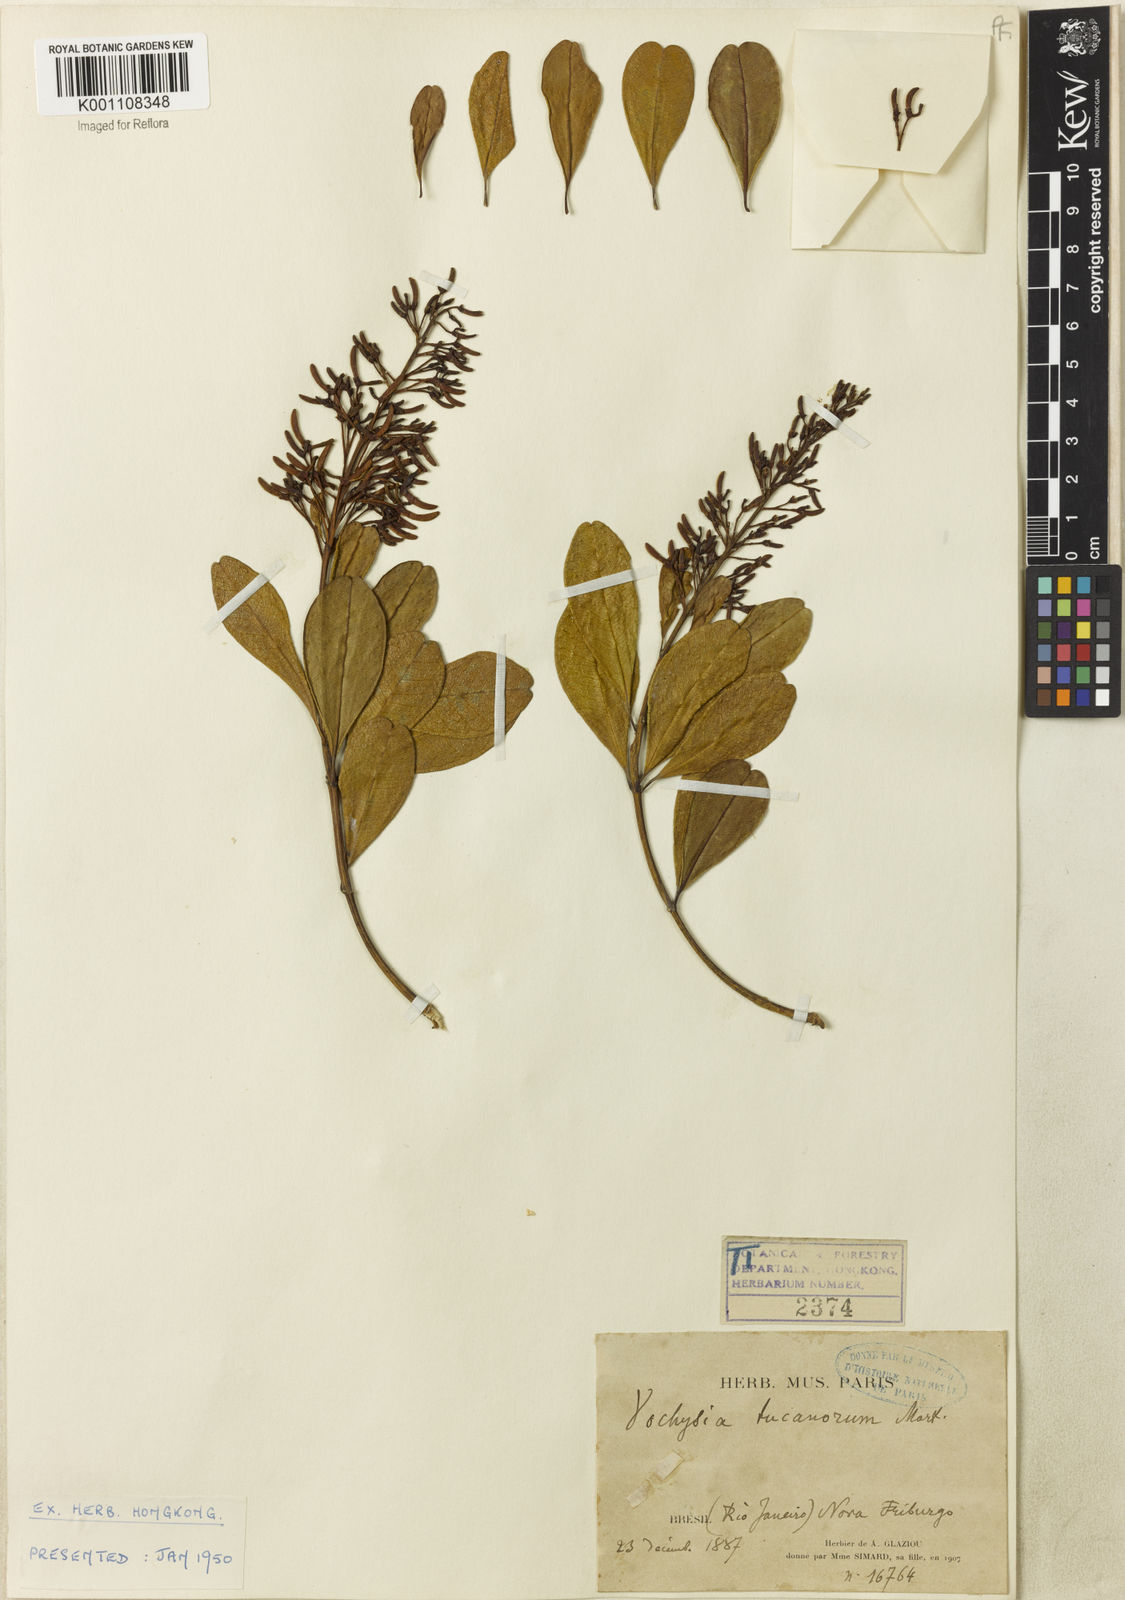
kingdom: Plantae
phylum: Tracheophyta
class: Magnoliopsida
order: Myrtales
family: Vochysiaceae
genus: Vochysia
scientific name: Vochysia tucanorum
